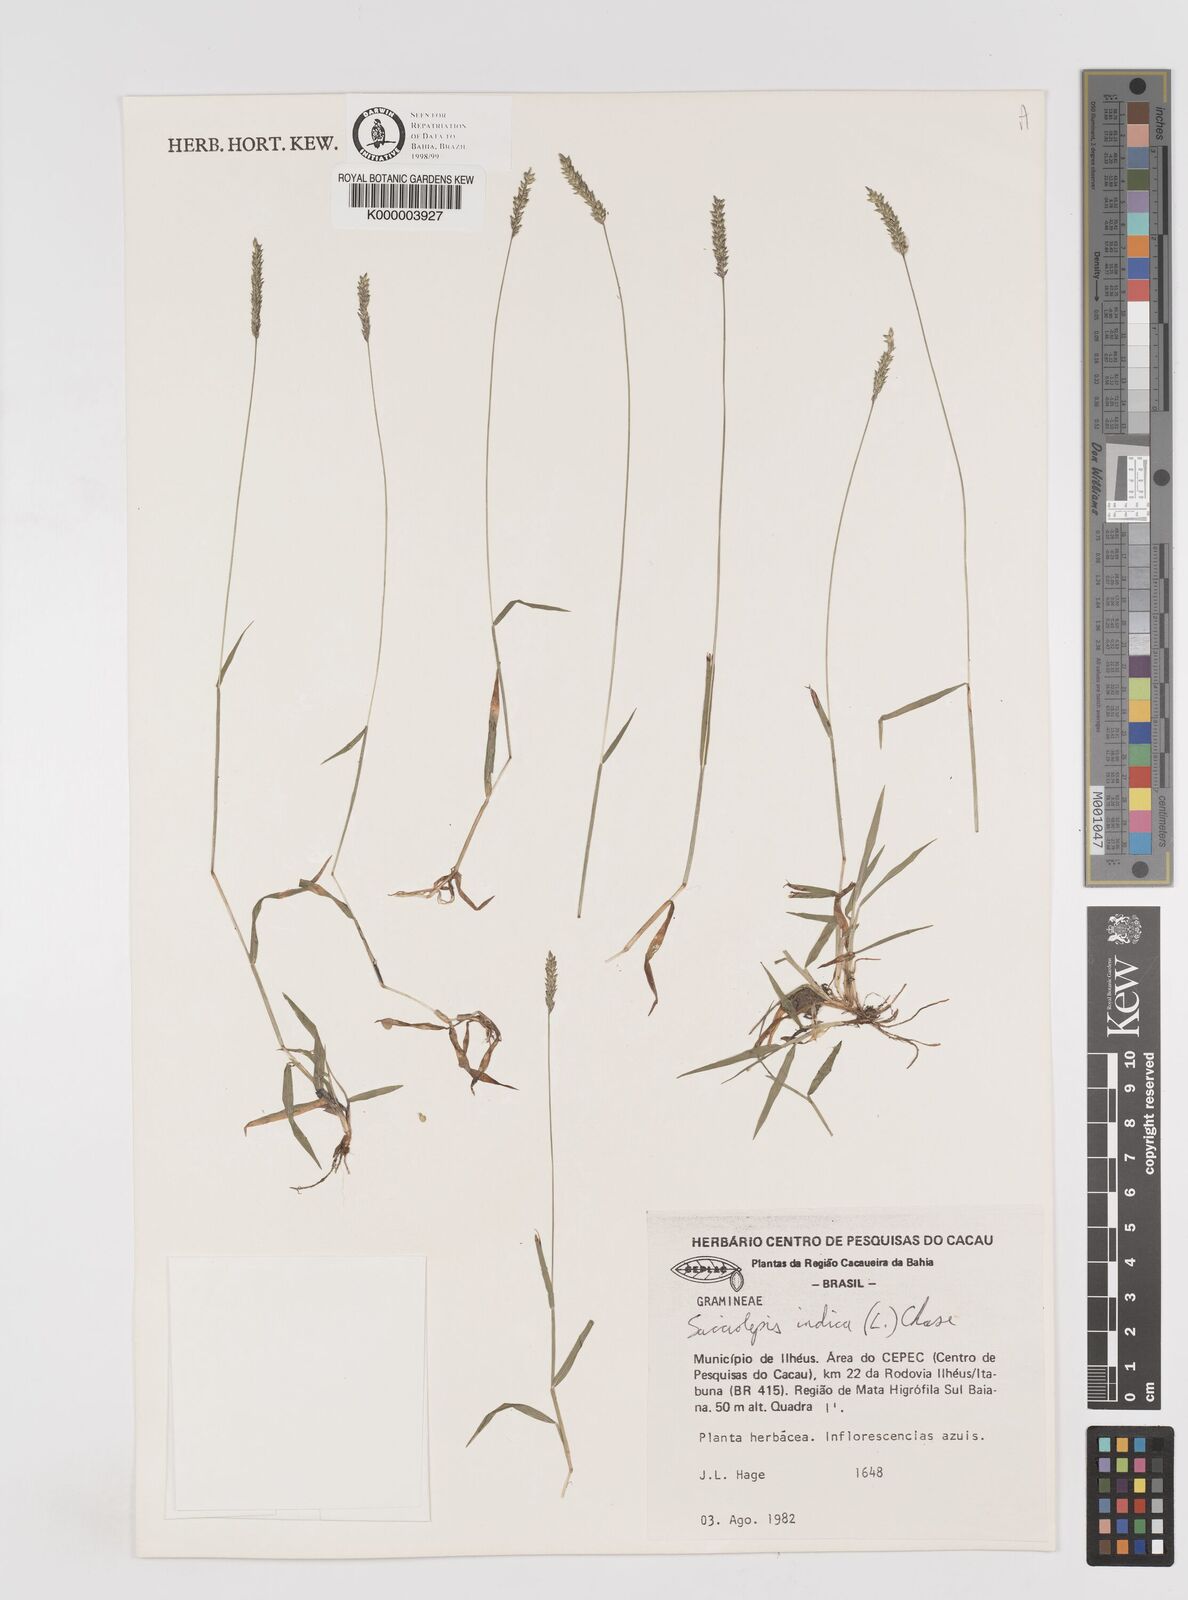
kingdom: Plantae
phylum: Tracheophyta
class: Liliopsida
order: Poales
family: Poaceae
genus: Sacciolepis
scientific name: Sacciolepis indica
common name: Glenwoodgrass
